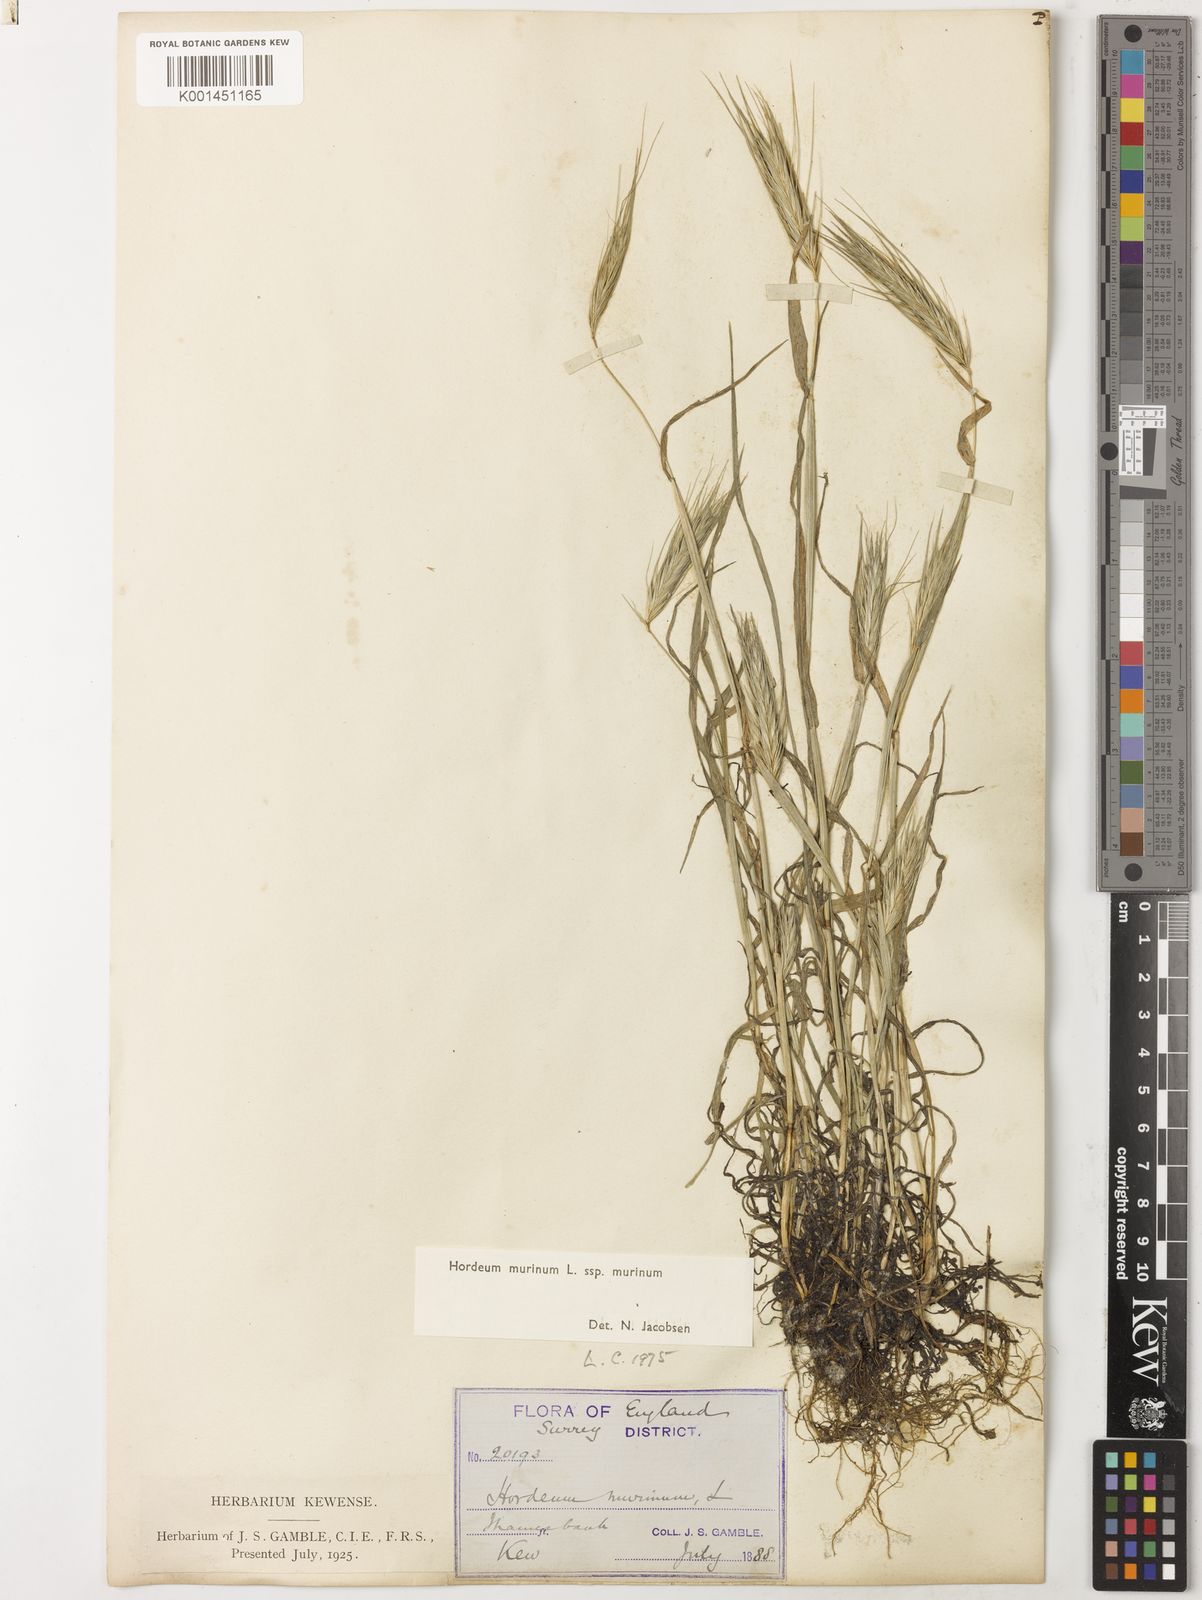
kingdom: Plantae
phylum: Tracheophyta
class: Liliopsida
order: Poales
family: Poaceae
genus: Hordeum
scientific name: Hordeum murinum
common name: Wall barley
